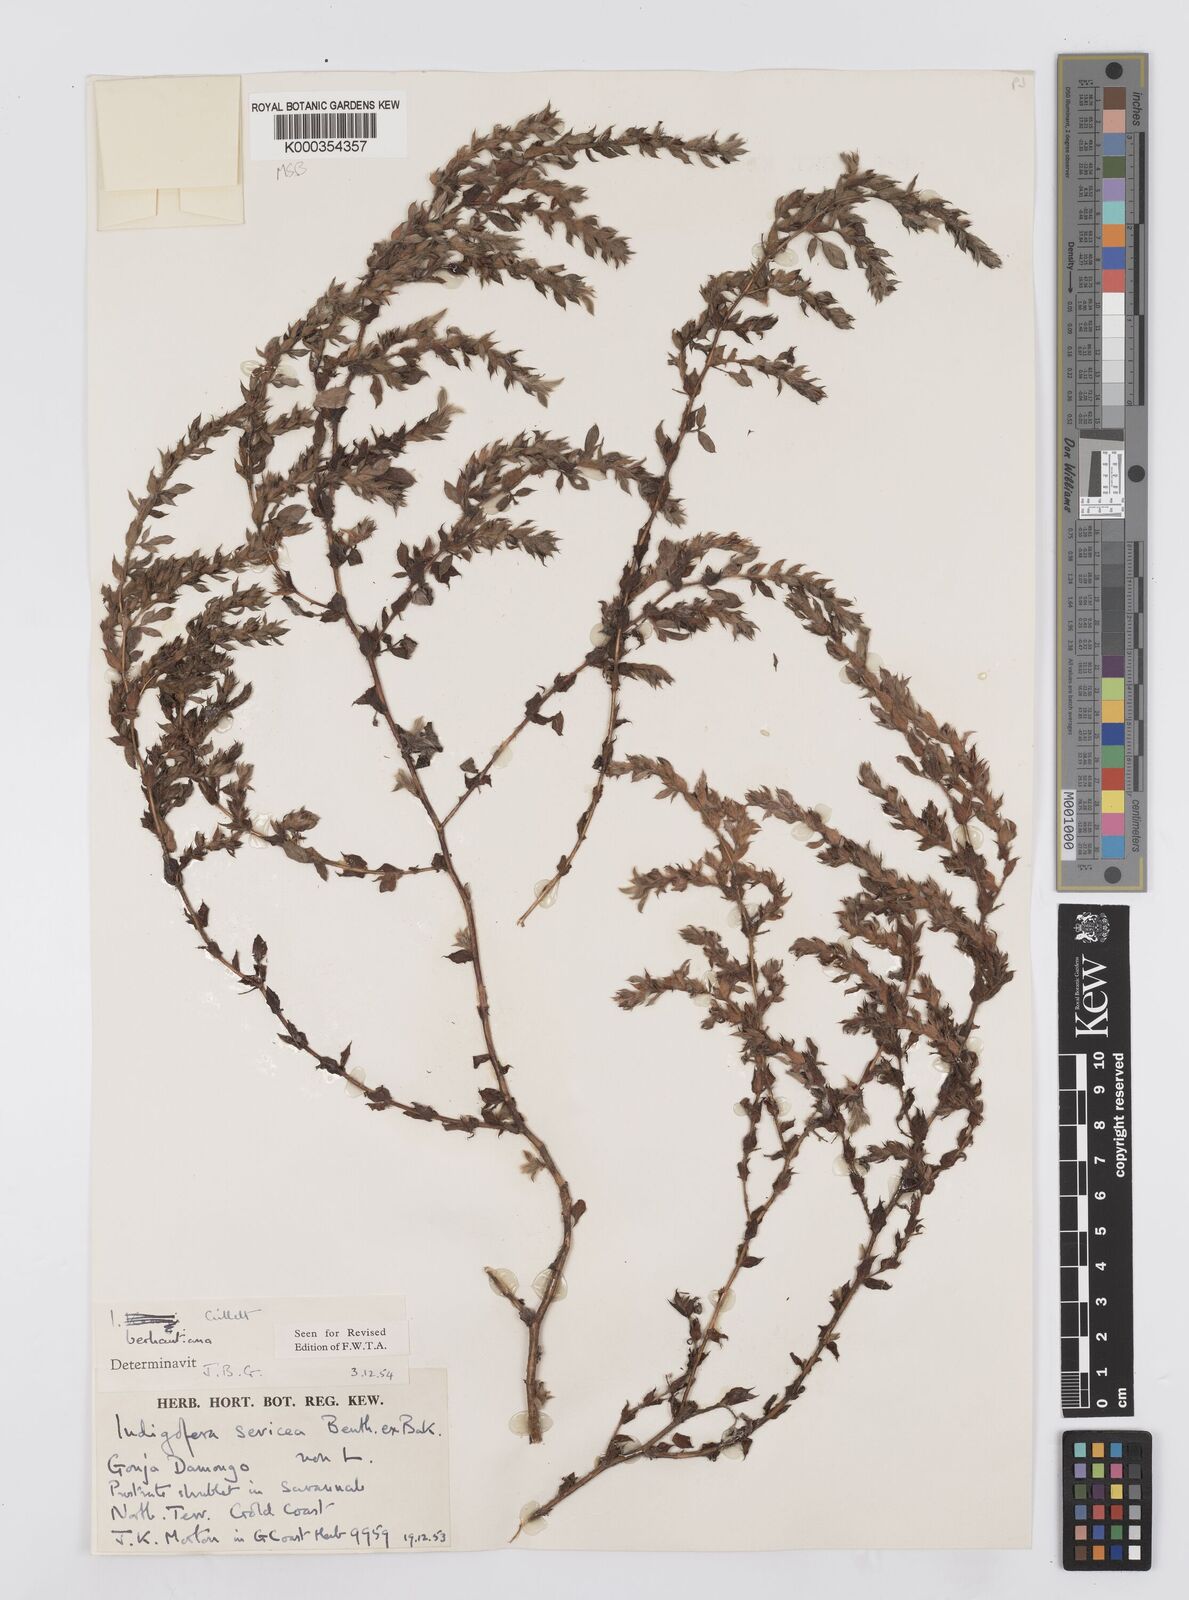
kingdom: Plantae
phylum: Tracheophyta
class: Magnoliopsida
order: Fabales
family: Fabaceae
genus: Indigofera
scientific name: Indigofera berhautiana
